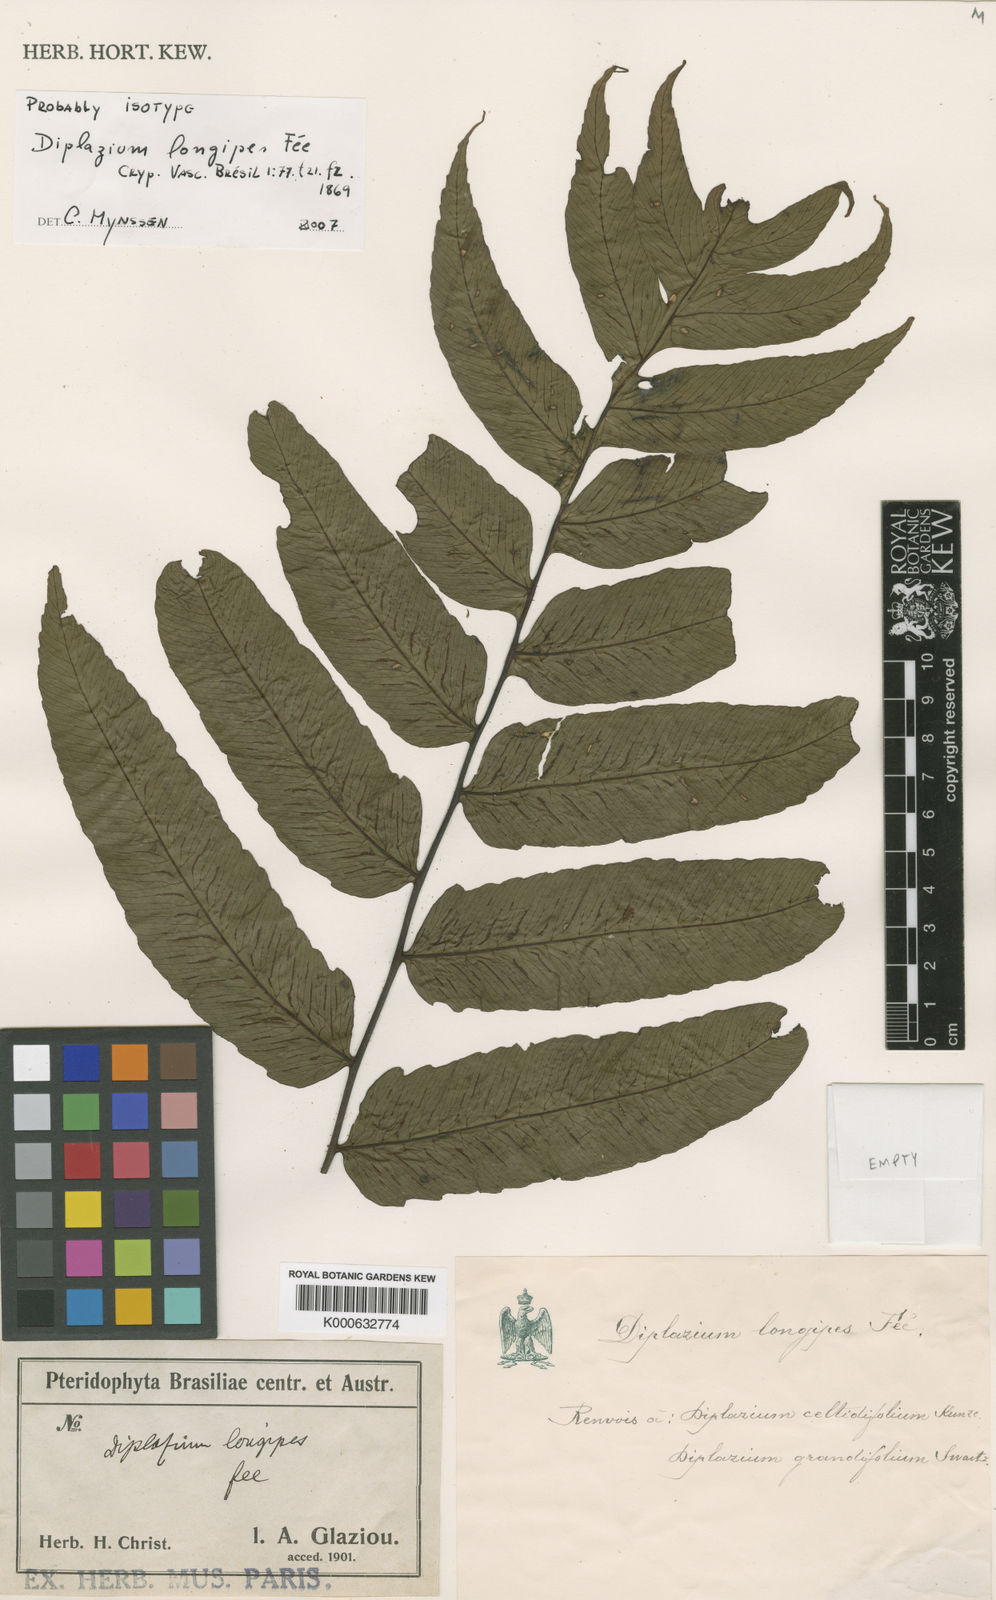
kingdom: Plantae
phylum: Tracheophyta
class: Polypodiopsida
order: Polypodiales
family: Athyriaceae
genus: Diplazium
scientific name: Diplazium celtidifolium
